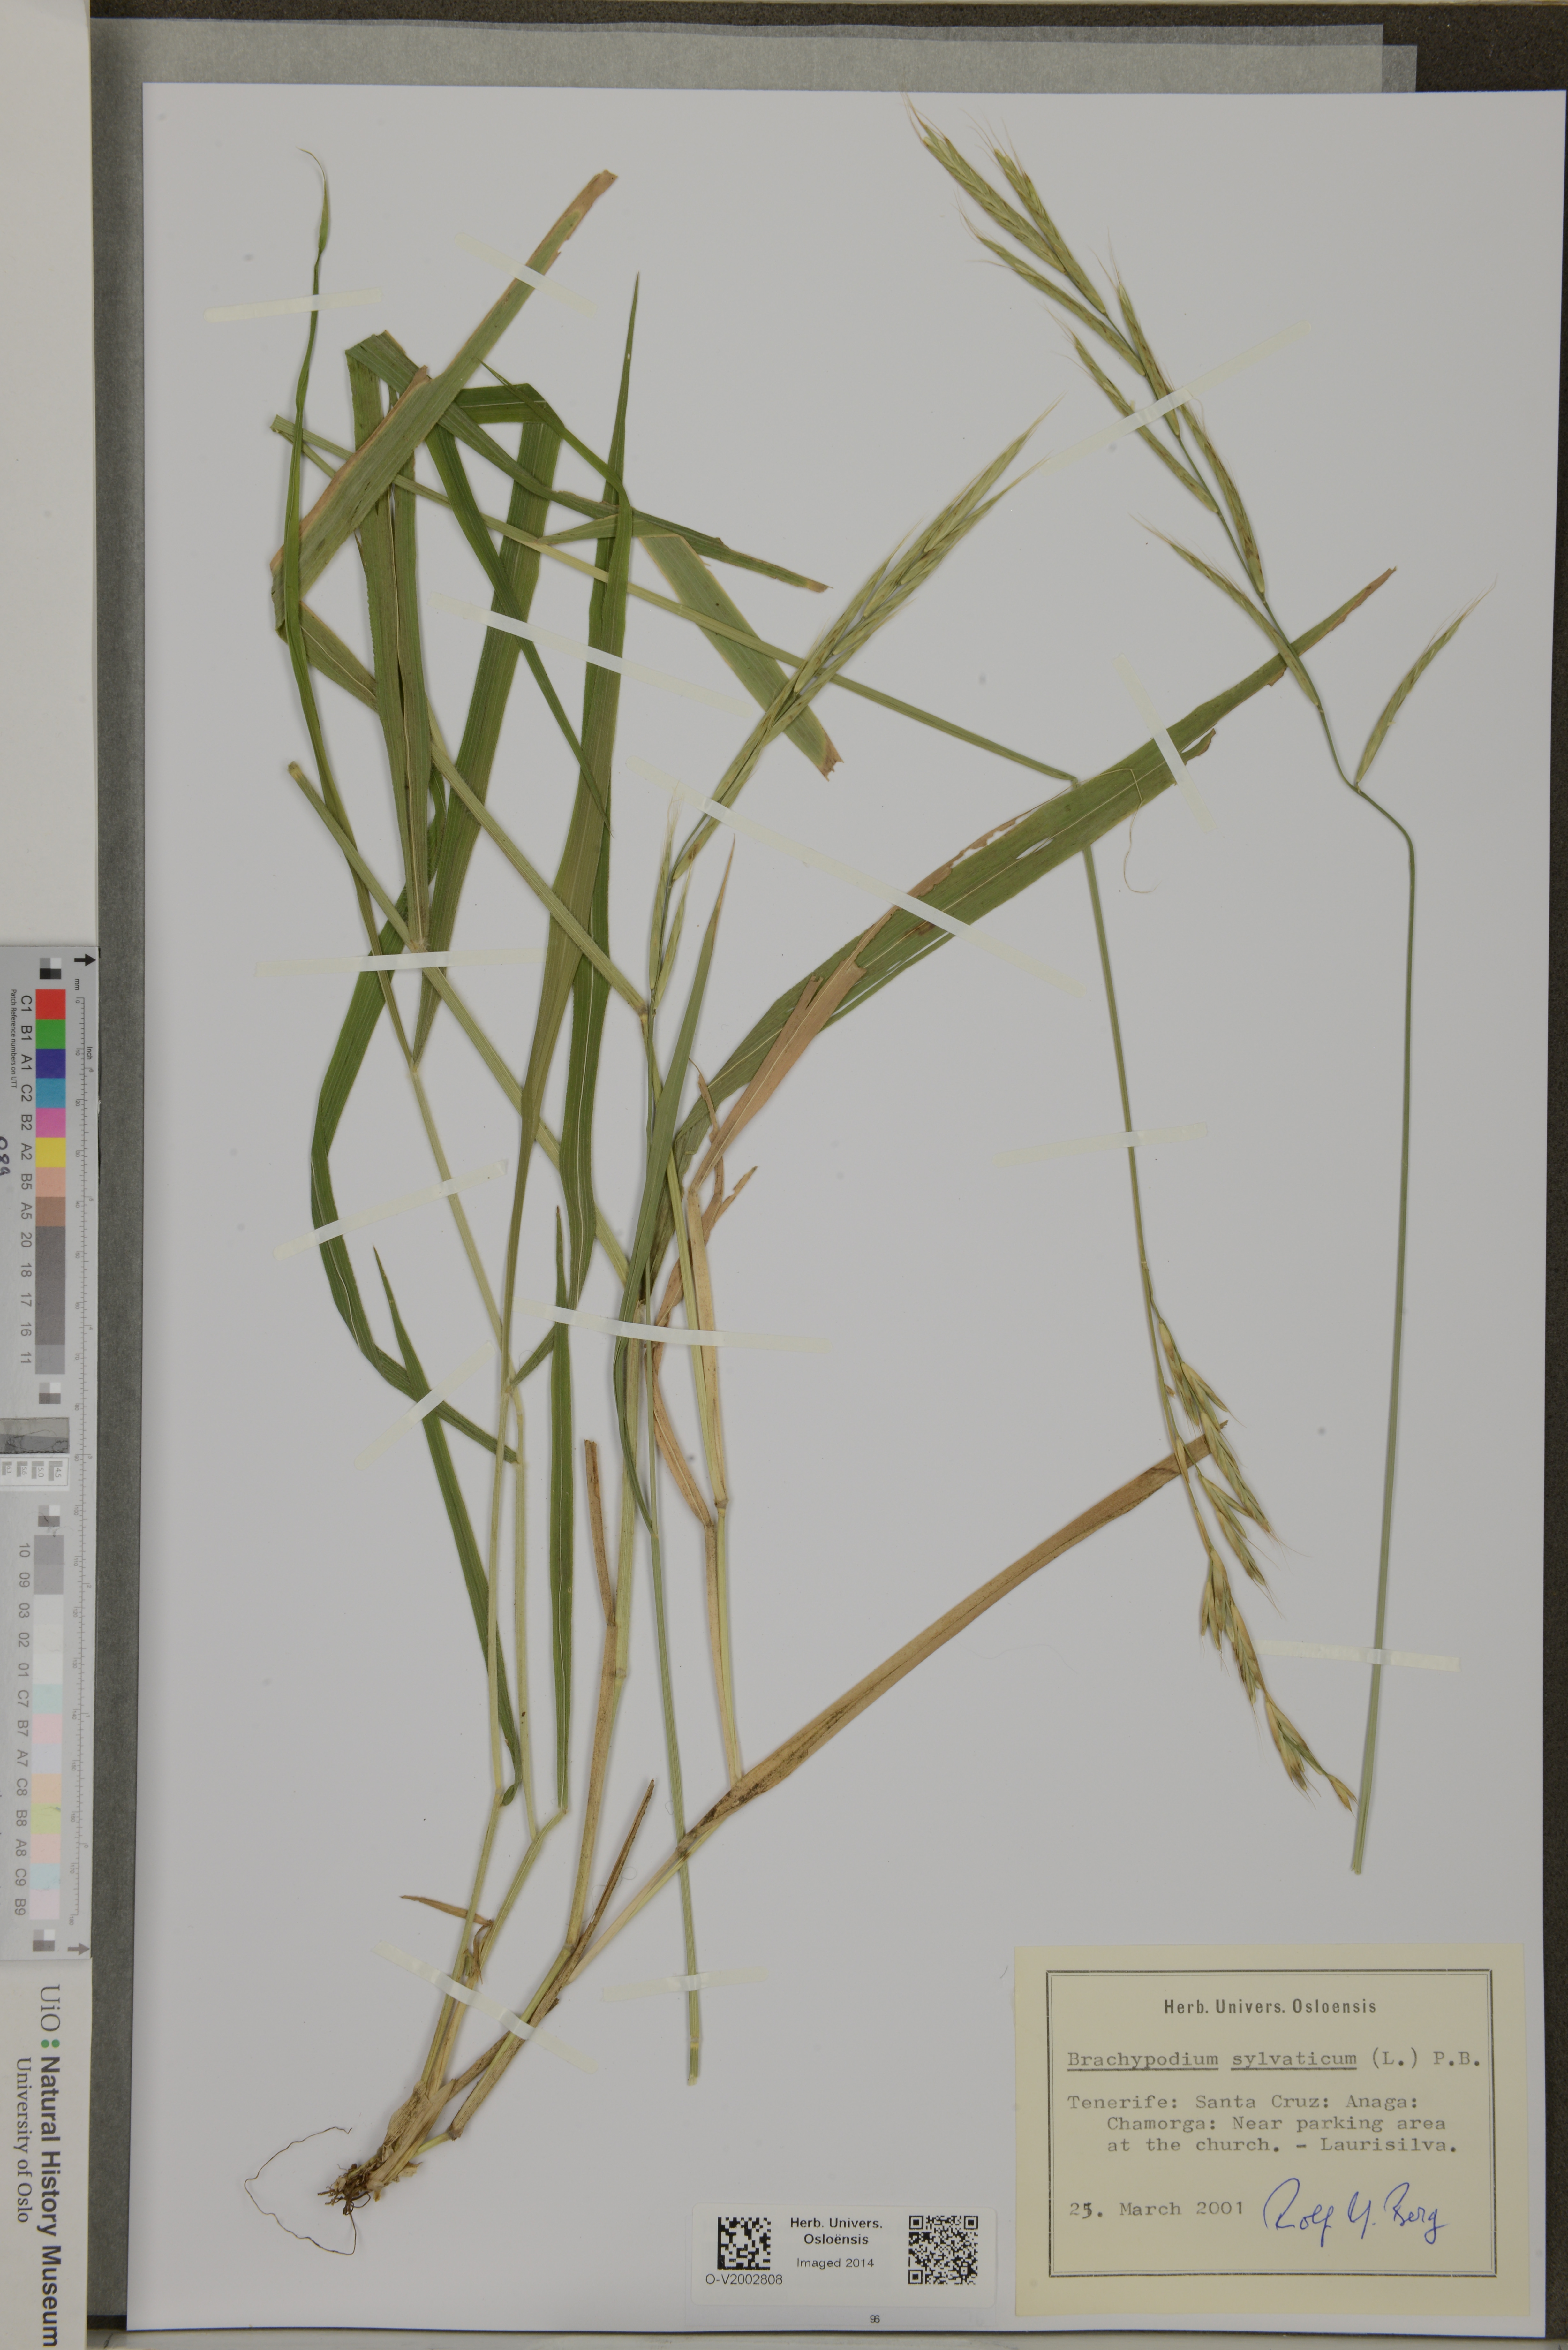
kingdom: Plantae
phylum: Tracheophyta
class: Liliopsida
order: Poales
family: Poaceae
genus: Brachypodium
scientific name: Brachypodium sylvaticum
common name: False-brome
